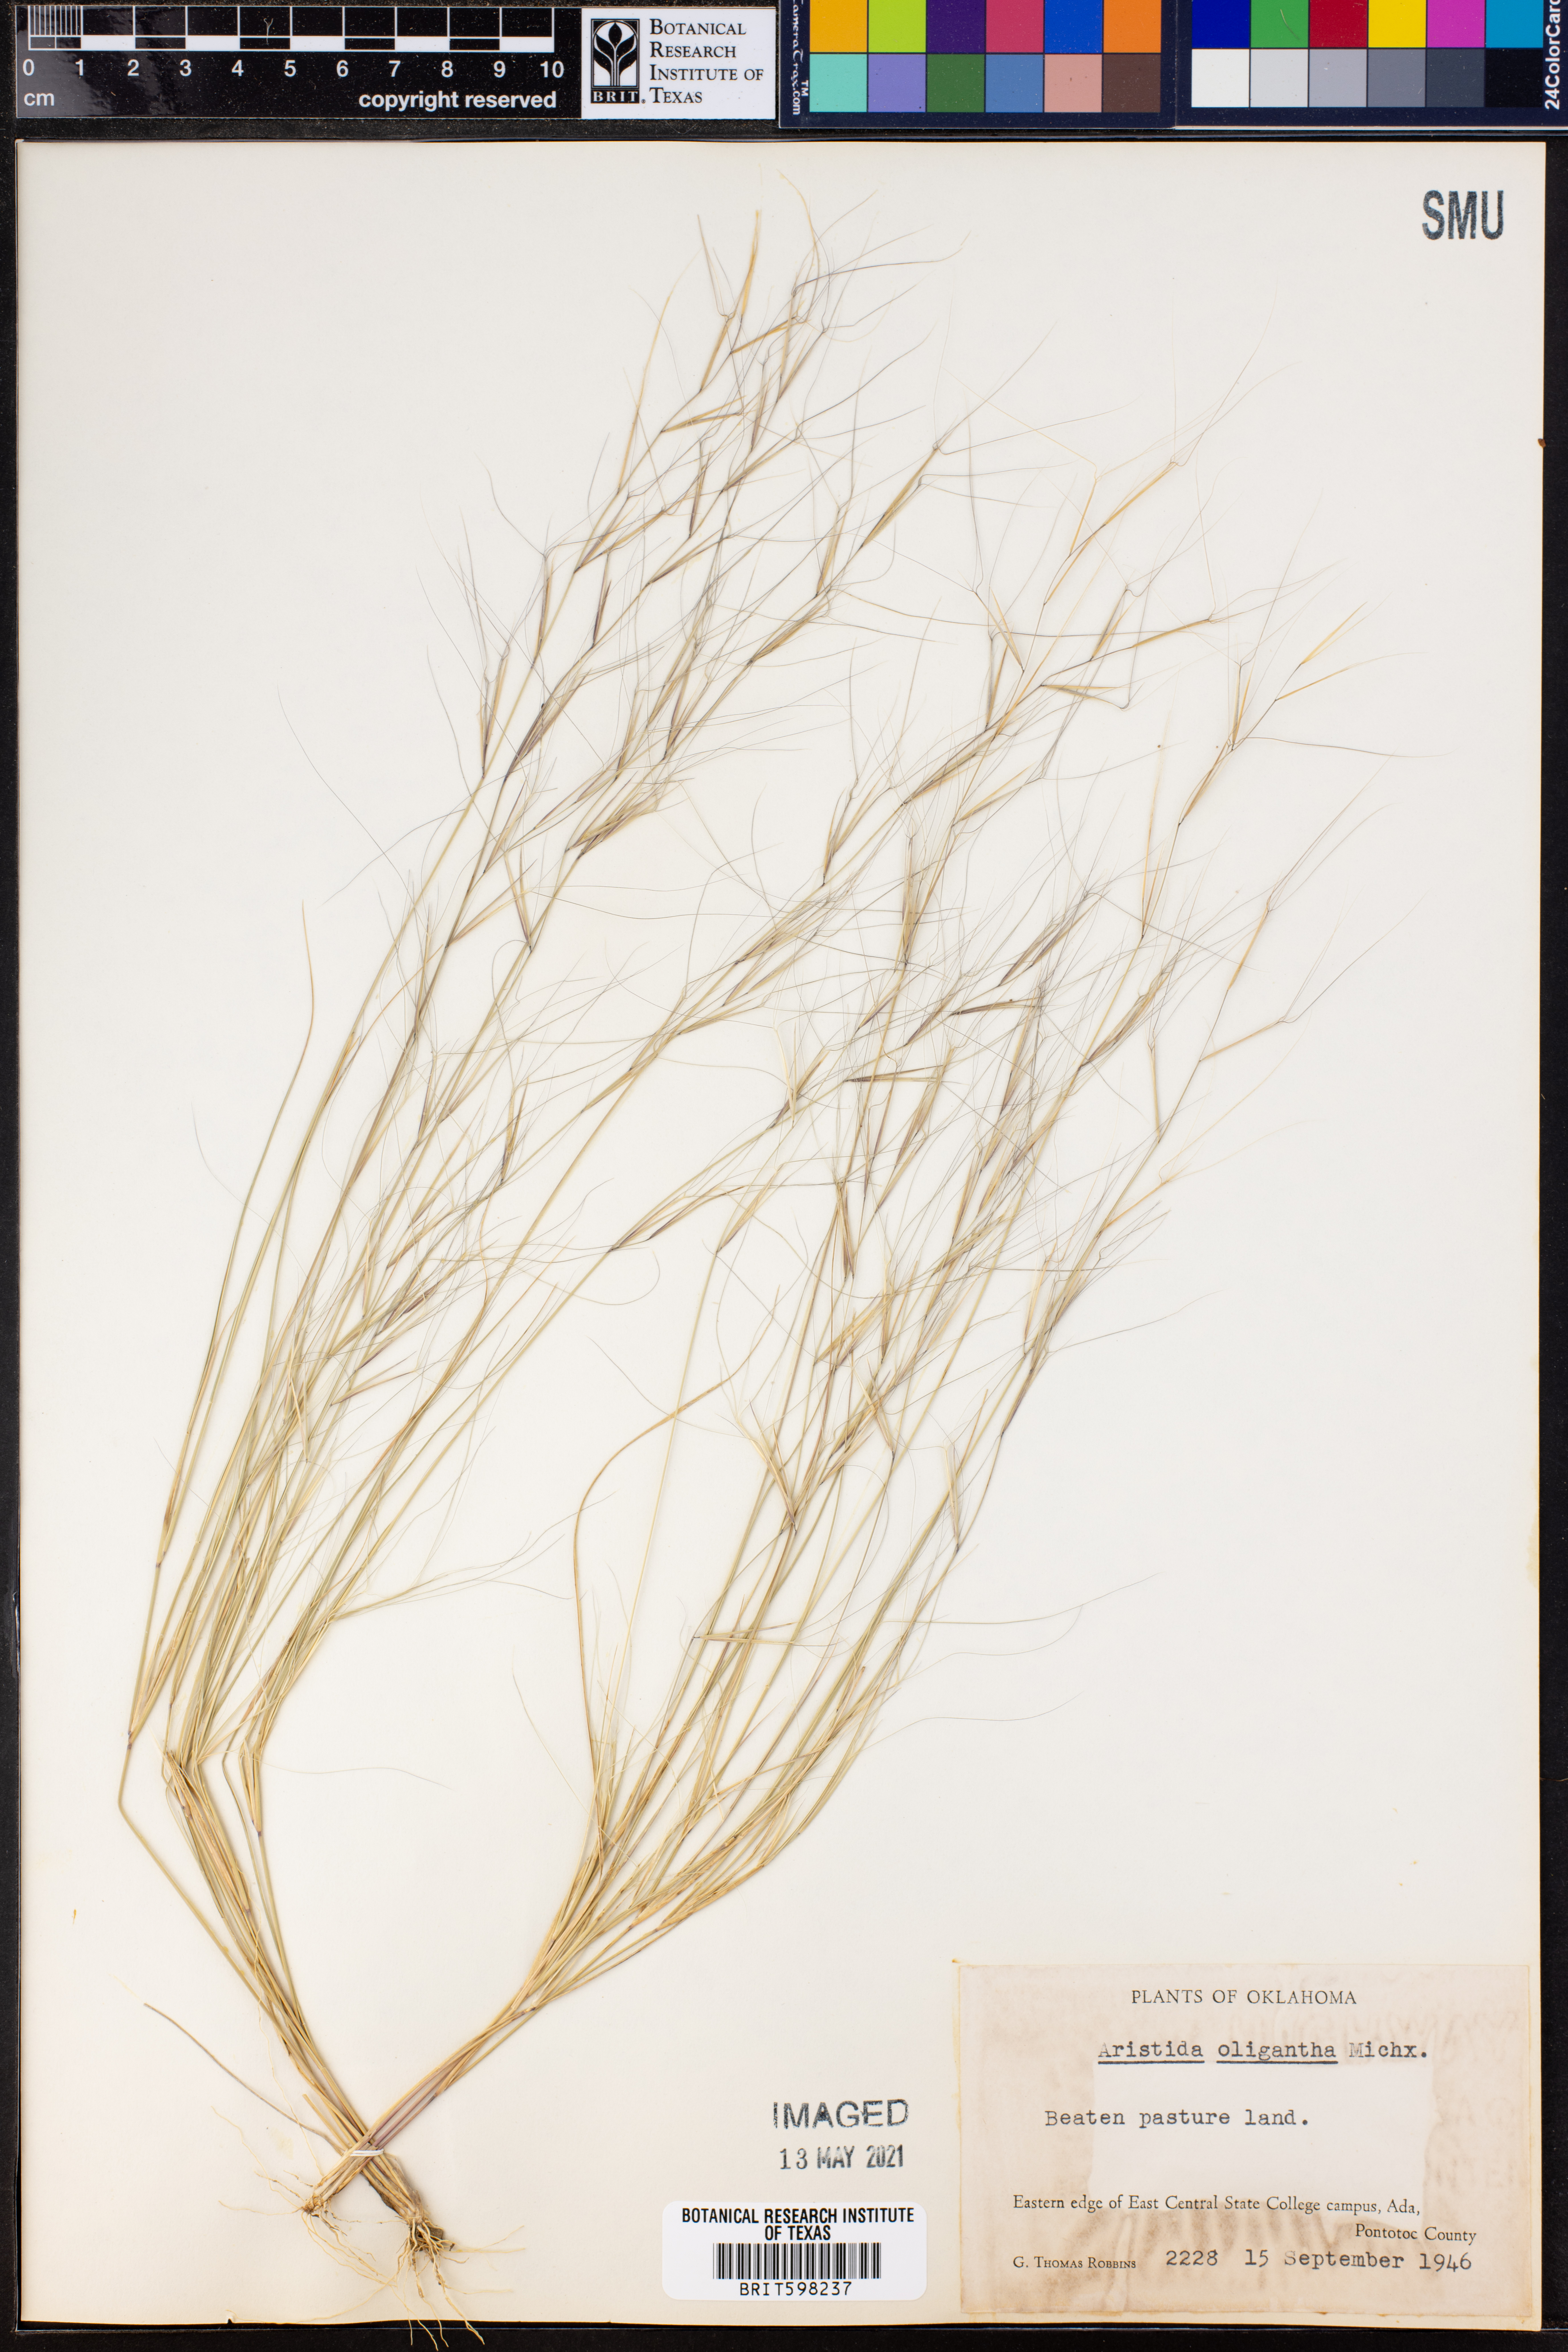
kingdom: Plantae
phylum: Tracheophyta
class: Liliopsida
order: Poales
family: Poaceae
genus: Aristida
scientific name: Aristida oligantha
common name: Few-flowered aristida
